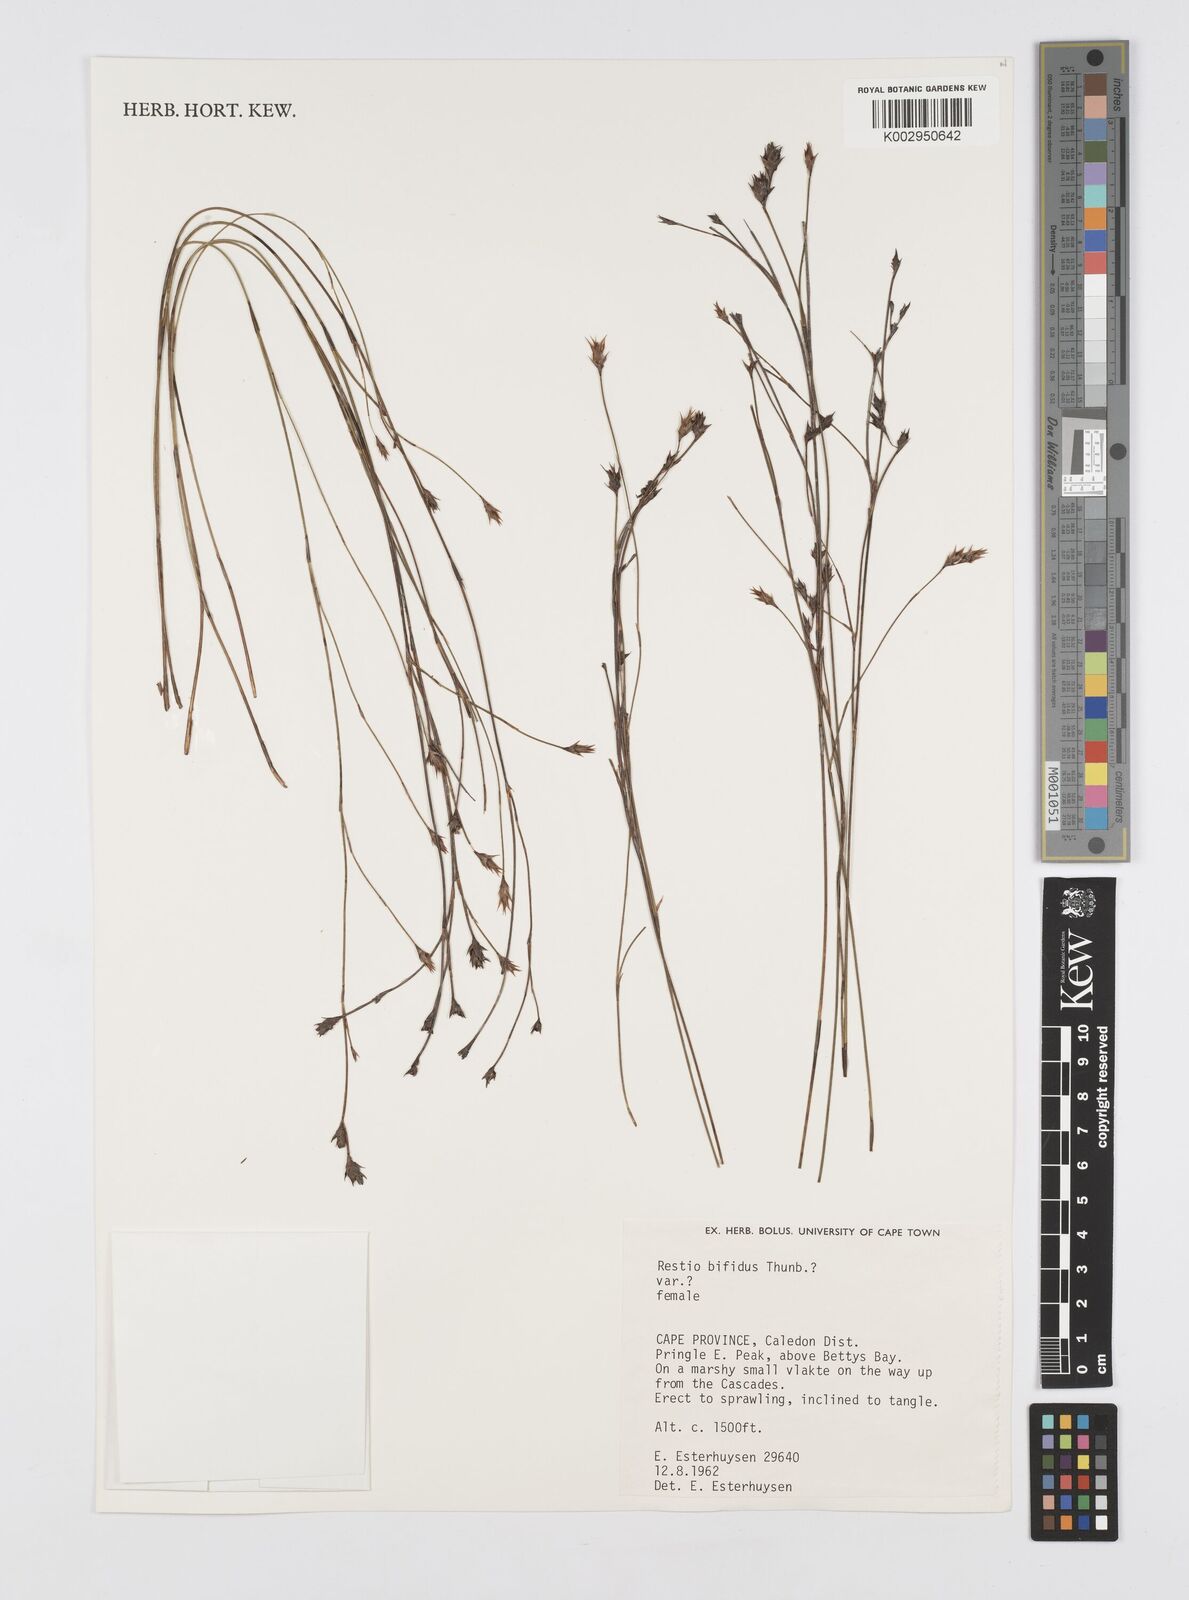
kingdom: Plantae
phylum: Tracheophyta
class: Liliopsida
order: Poales
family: Restionaceae
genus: Restio
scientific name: Restio bifidus
